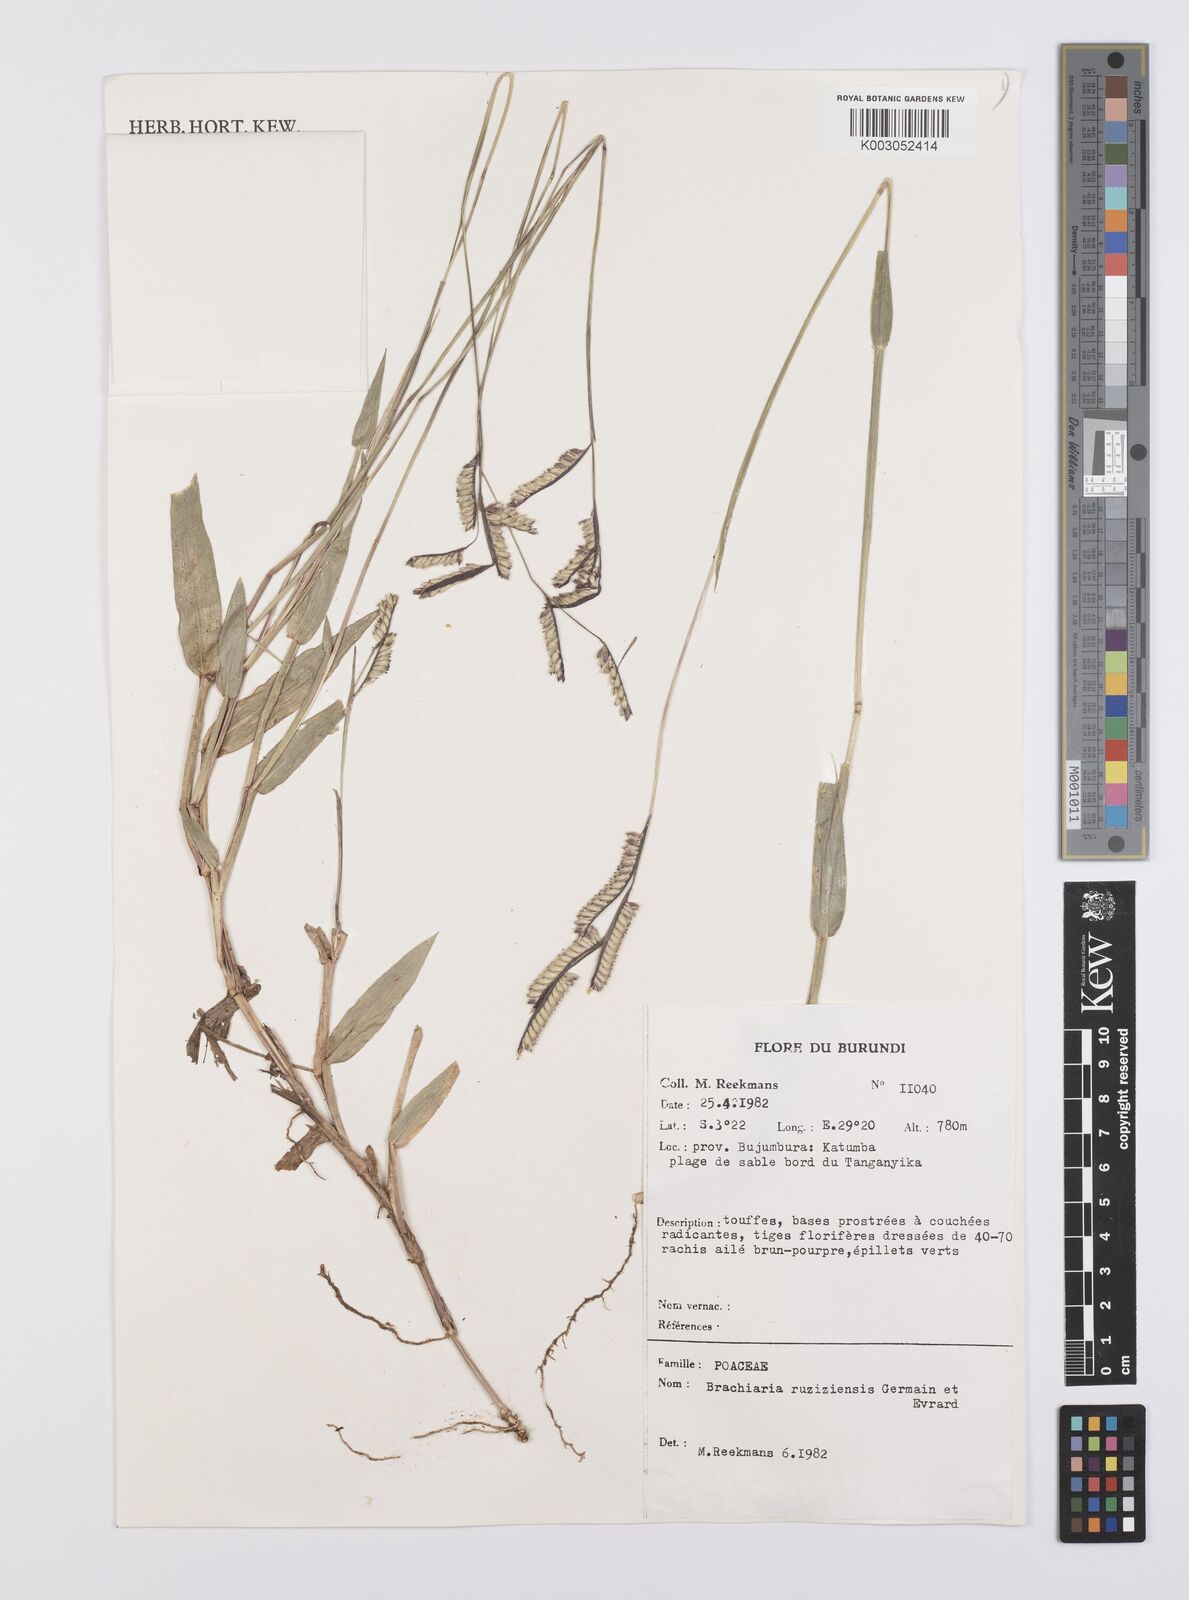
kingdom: Plantae
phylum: Tracheophyta
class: Liliopsida
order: Poales
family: Poaceae
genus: Urochloa
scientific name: Urochloa eminii
